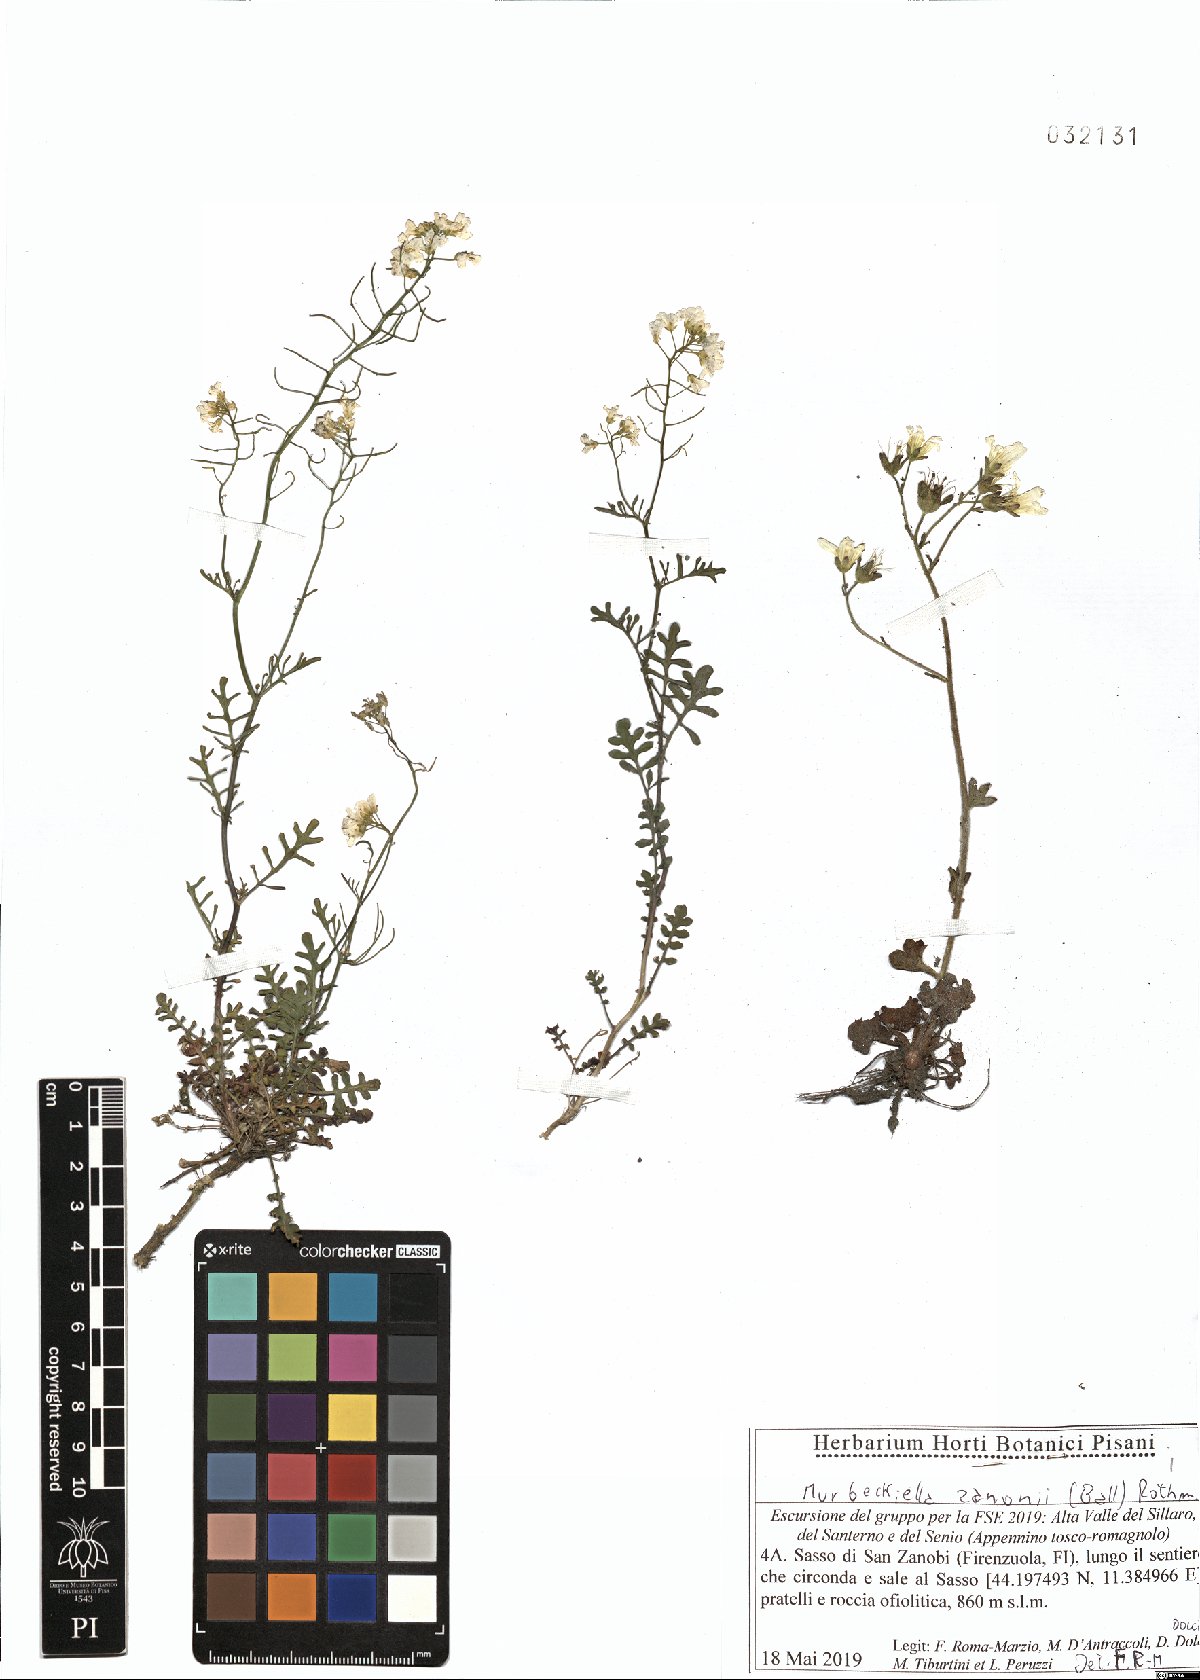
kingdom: Plantae
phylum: Tracheophyta
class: Magnoliopsida
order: Brassicales
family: Brassicaceae
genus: Murbeckiella
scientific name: Murbeckiella zanonii
